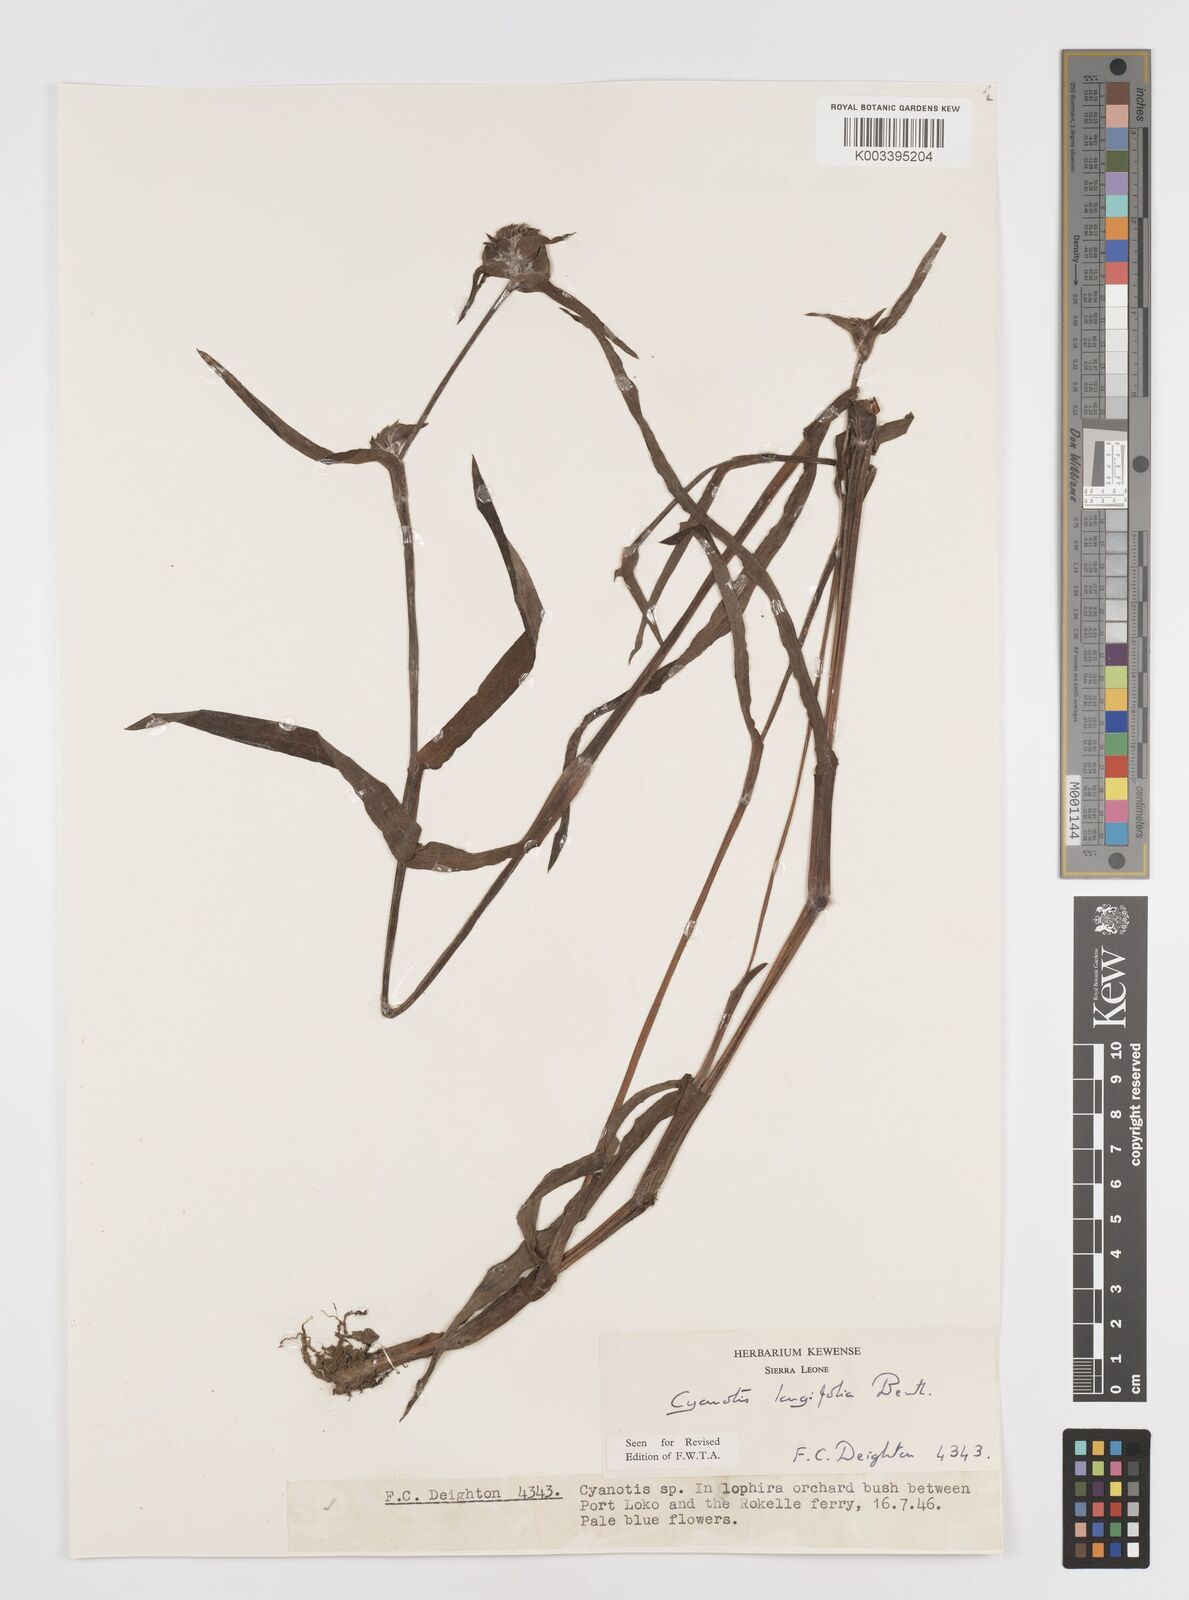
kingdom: Plantae
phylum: Tracheophyta
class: Liliopsida
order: Commelinales
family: Commelinaceae
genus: Cyanotis
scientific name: Cyanotis
